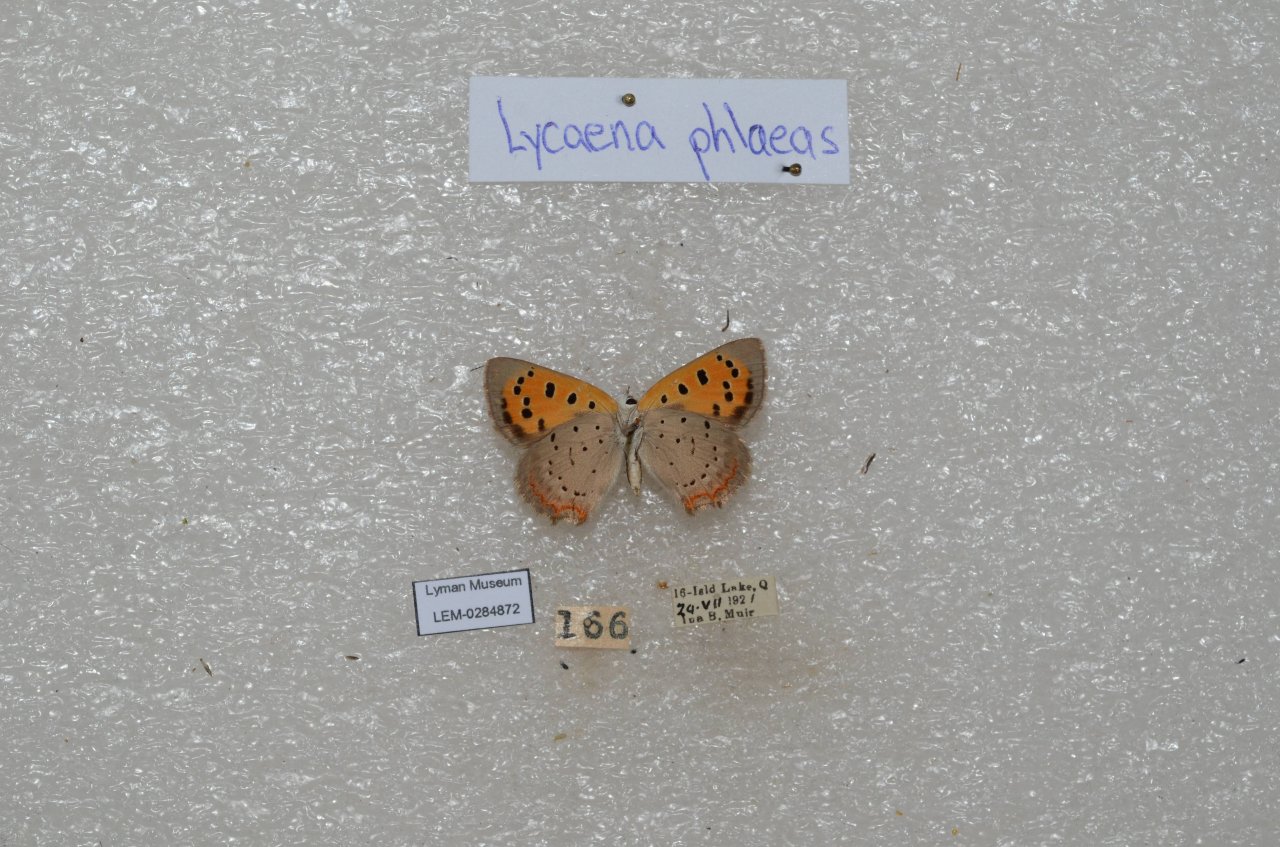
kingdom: Animalia
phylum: Arthropoda
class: Insecta
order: Lepidoptera
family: Lycaenidae
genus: Lycaena
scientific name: Lycaena phlaeas
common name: American Copper
